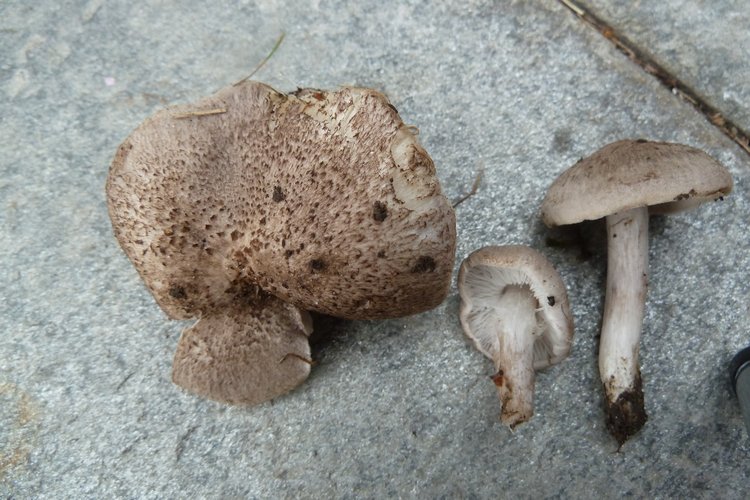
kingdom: Fungi
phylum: Basidiomycota
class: Agaricomycetes
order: Agaricales
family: Tricholomataceae
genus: Tricholoma
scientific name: Tricholoma argyraceum
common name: slør-ridderhat
